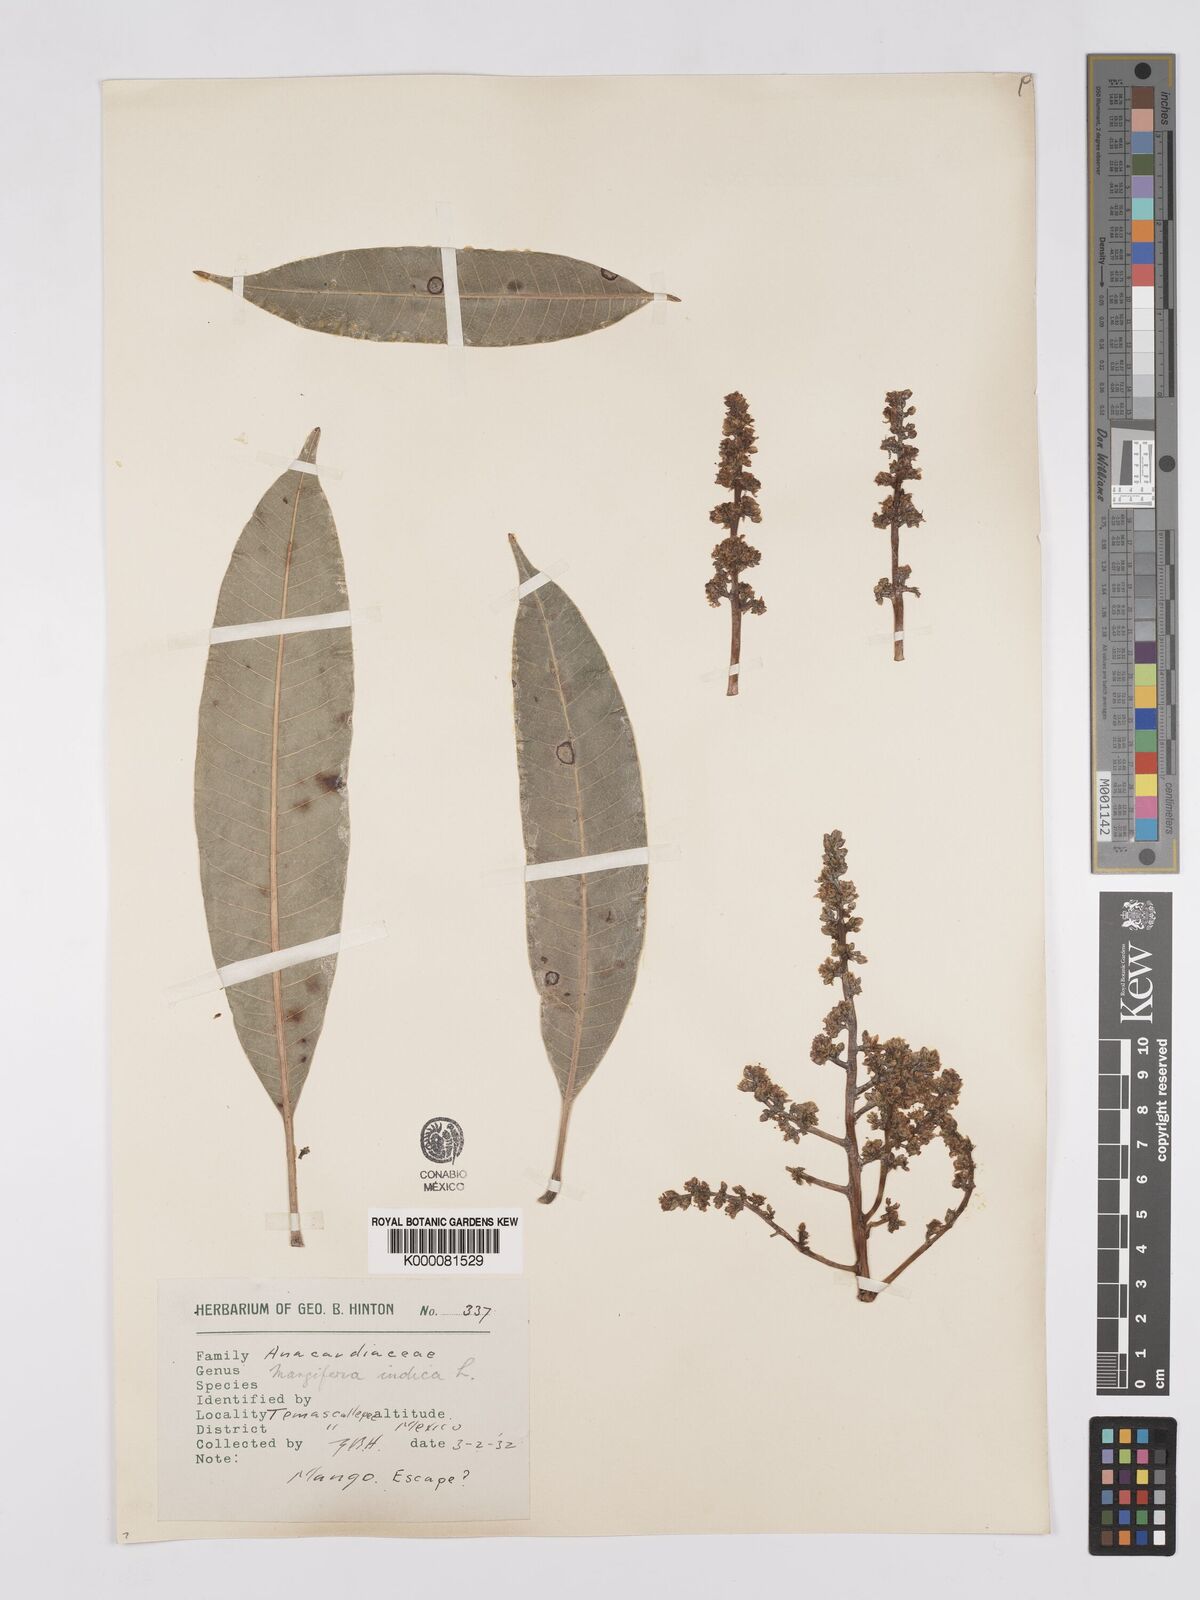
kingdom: Plantae
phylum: Tracheophyta
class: Magnoliopsida
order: Sapindales
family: Anacardiaceae
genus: Mangifera
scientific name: Mangifera indica
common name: Mango
